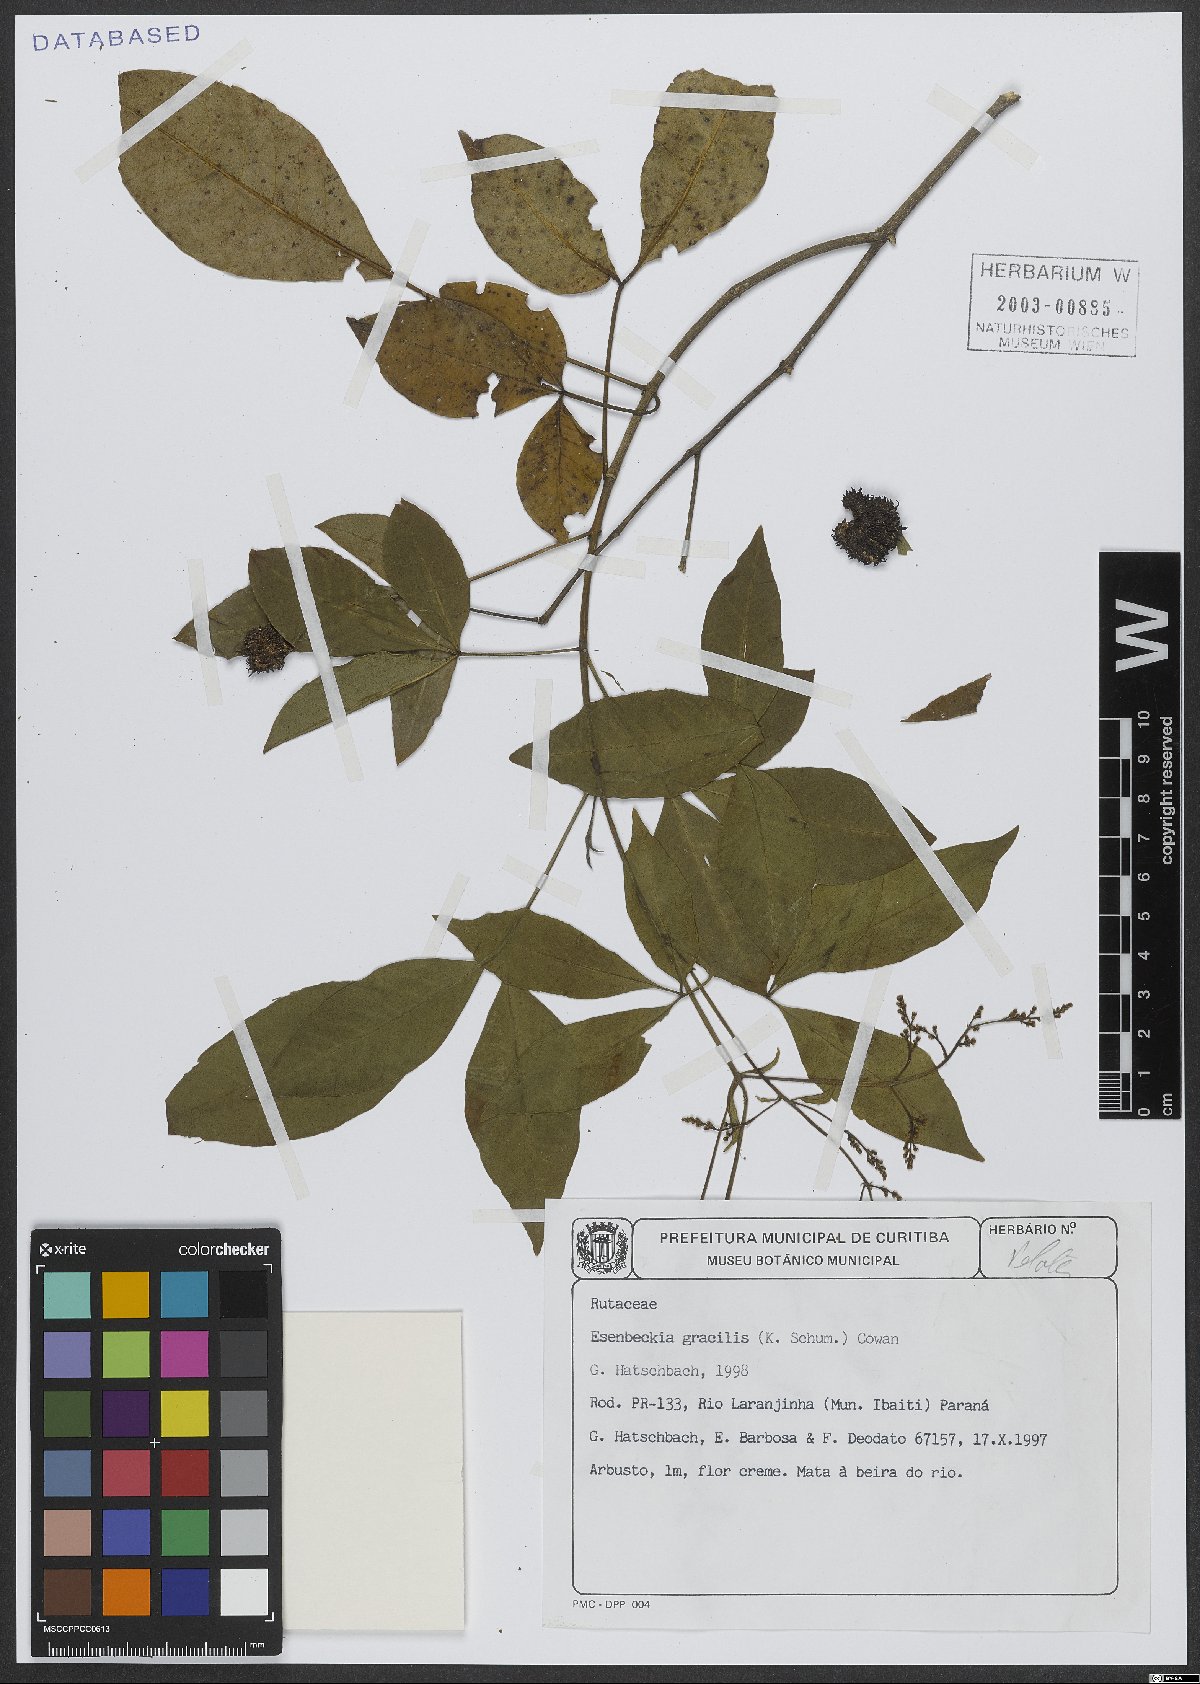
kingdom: Plantae
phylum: Tracheophyta
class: Magnoliopsida
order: Sapindales
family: Rutaceae
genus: Esenbeckia
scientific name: Esenbeckia febrifuga
